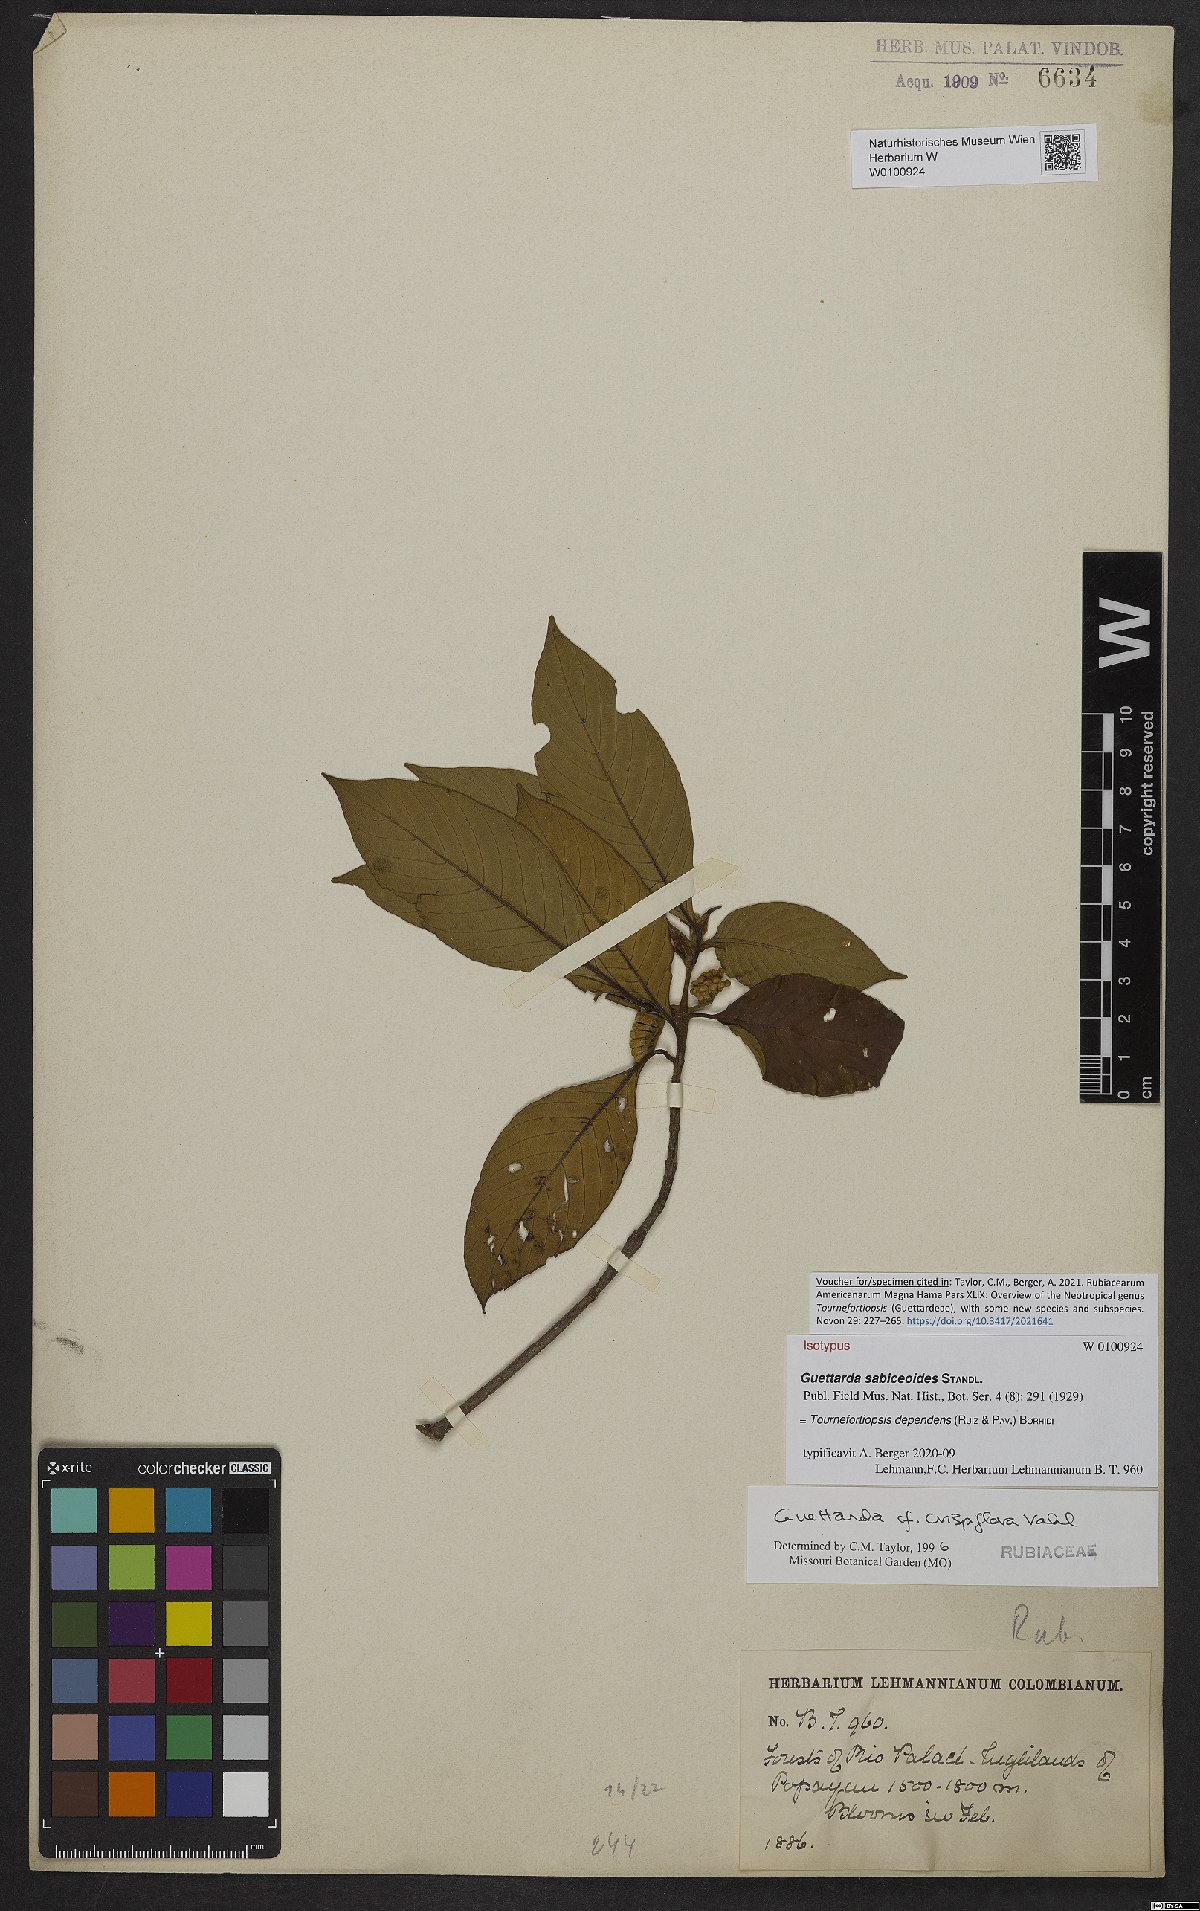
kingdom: Plantae
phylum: Tracheophyta
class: Magnoliopsida
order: Gentianales
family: Rubiaceae
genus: Tournefortiopsis
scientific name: Tournefortiopsis dependens
